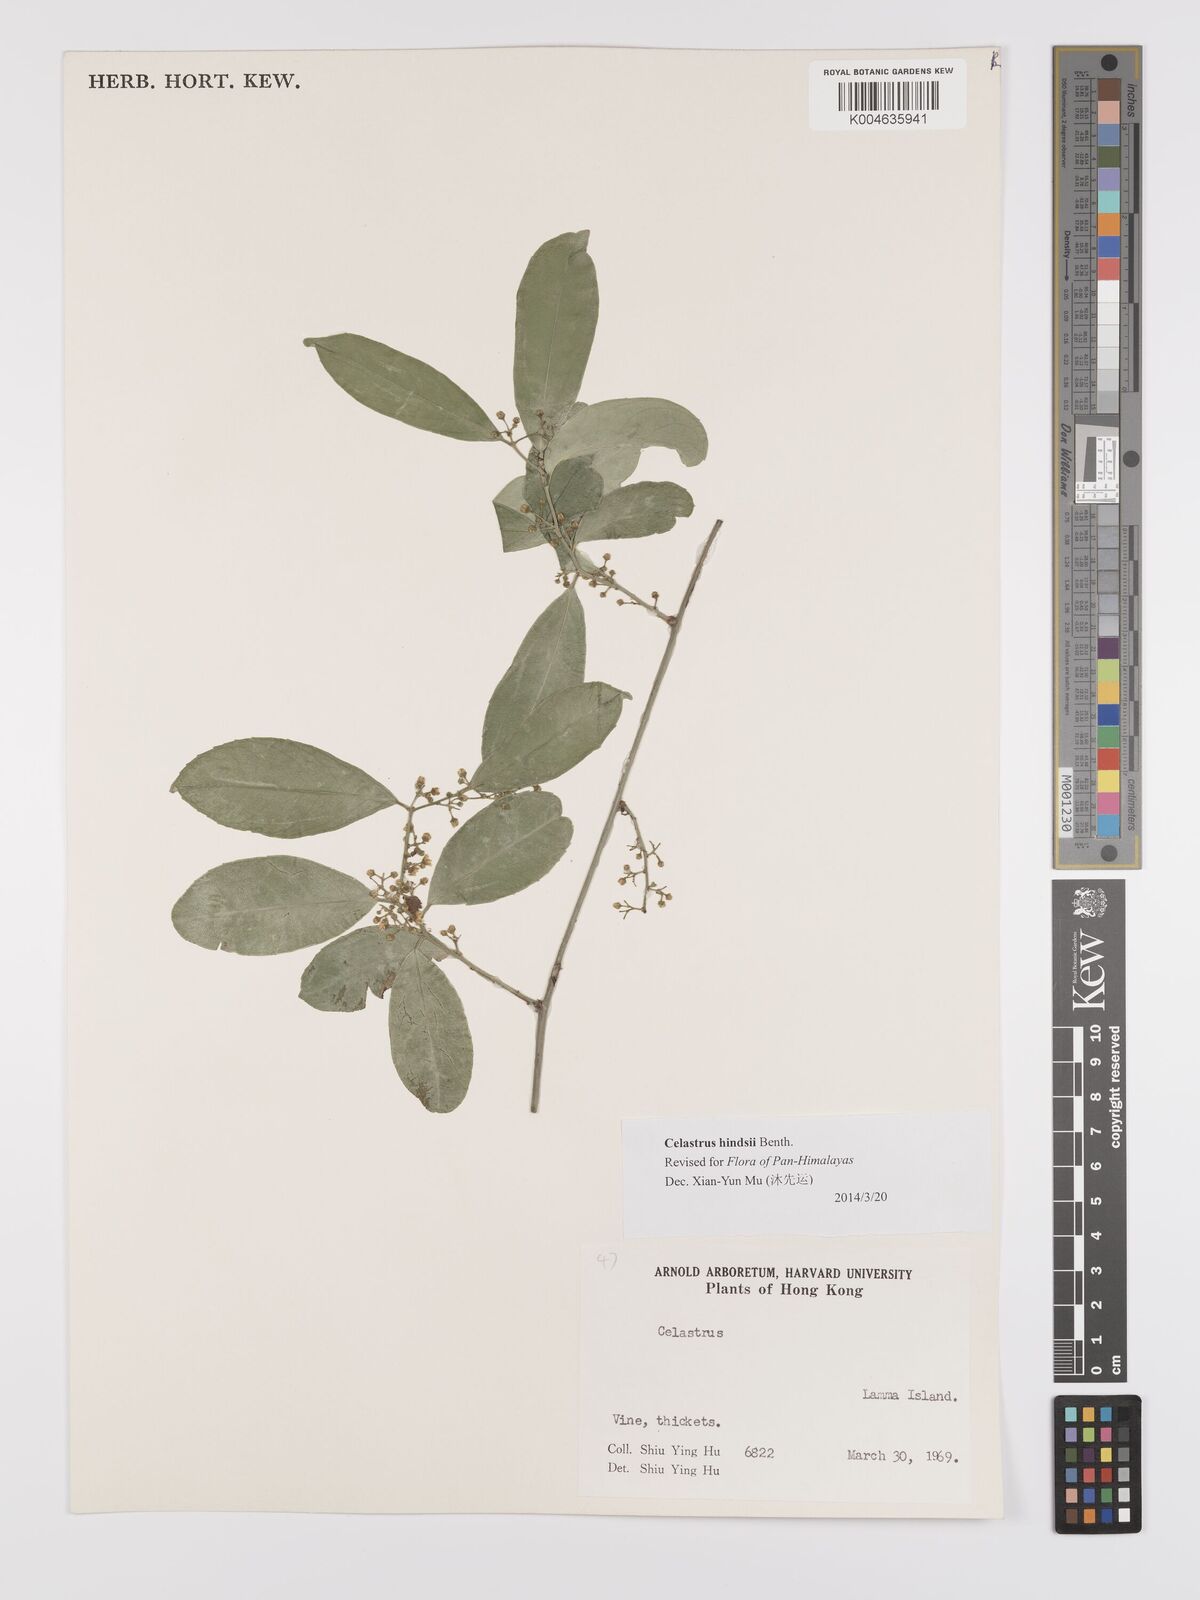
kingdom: Plantae
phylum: Tracheophyta
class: Magnoliopsida
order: Celastrales
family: Celastraceae
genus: Celastrus
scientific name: Celastrus hindsii
